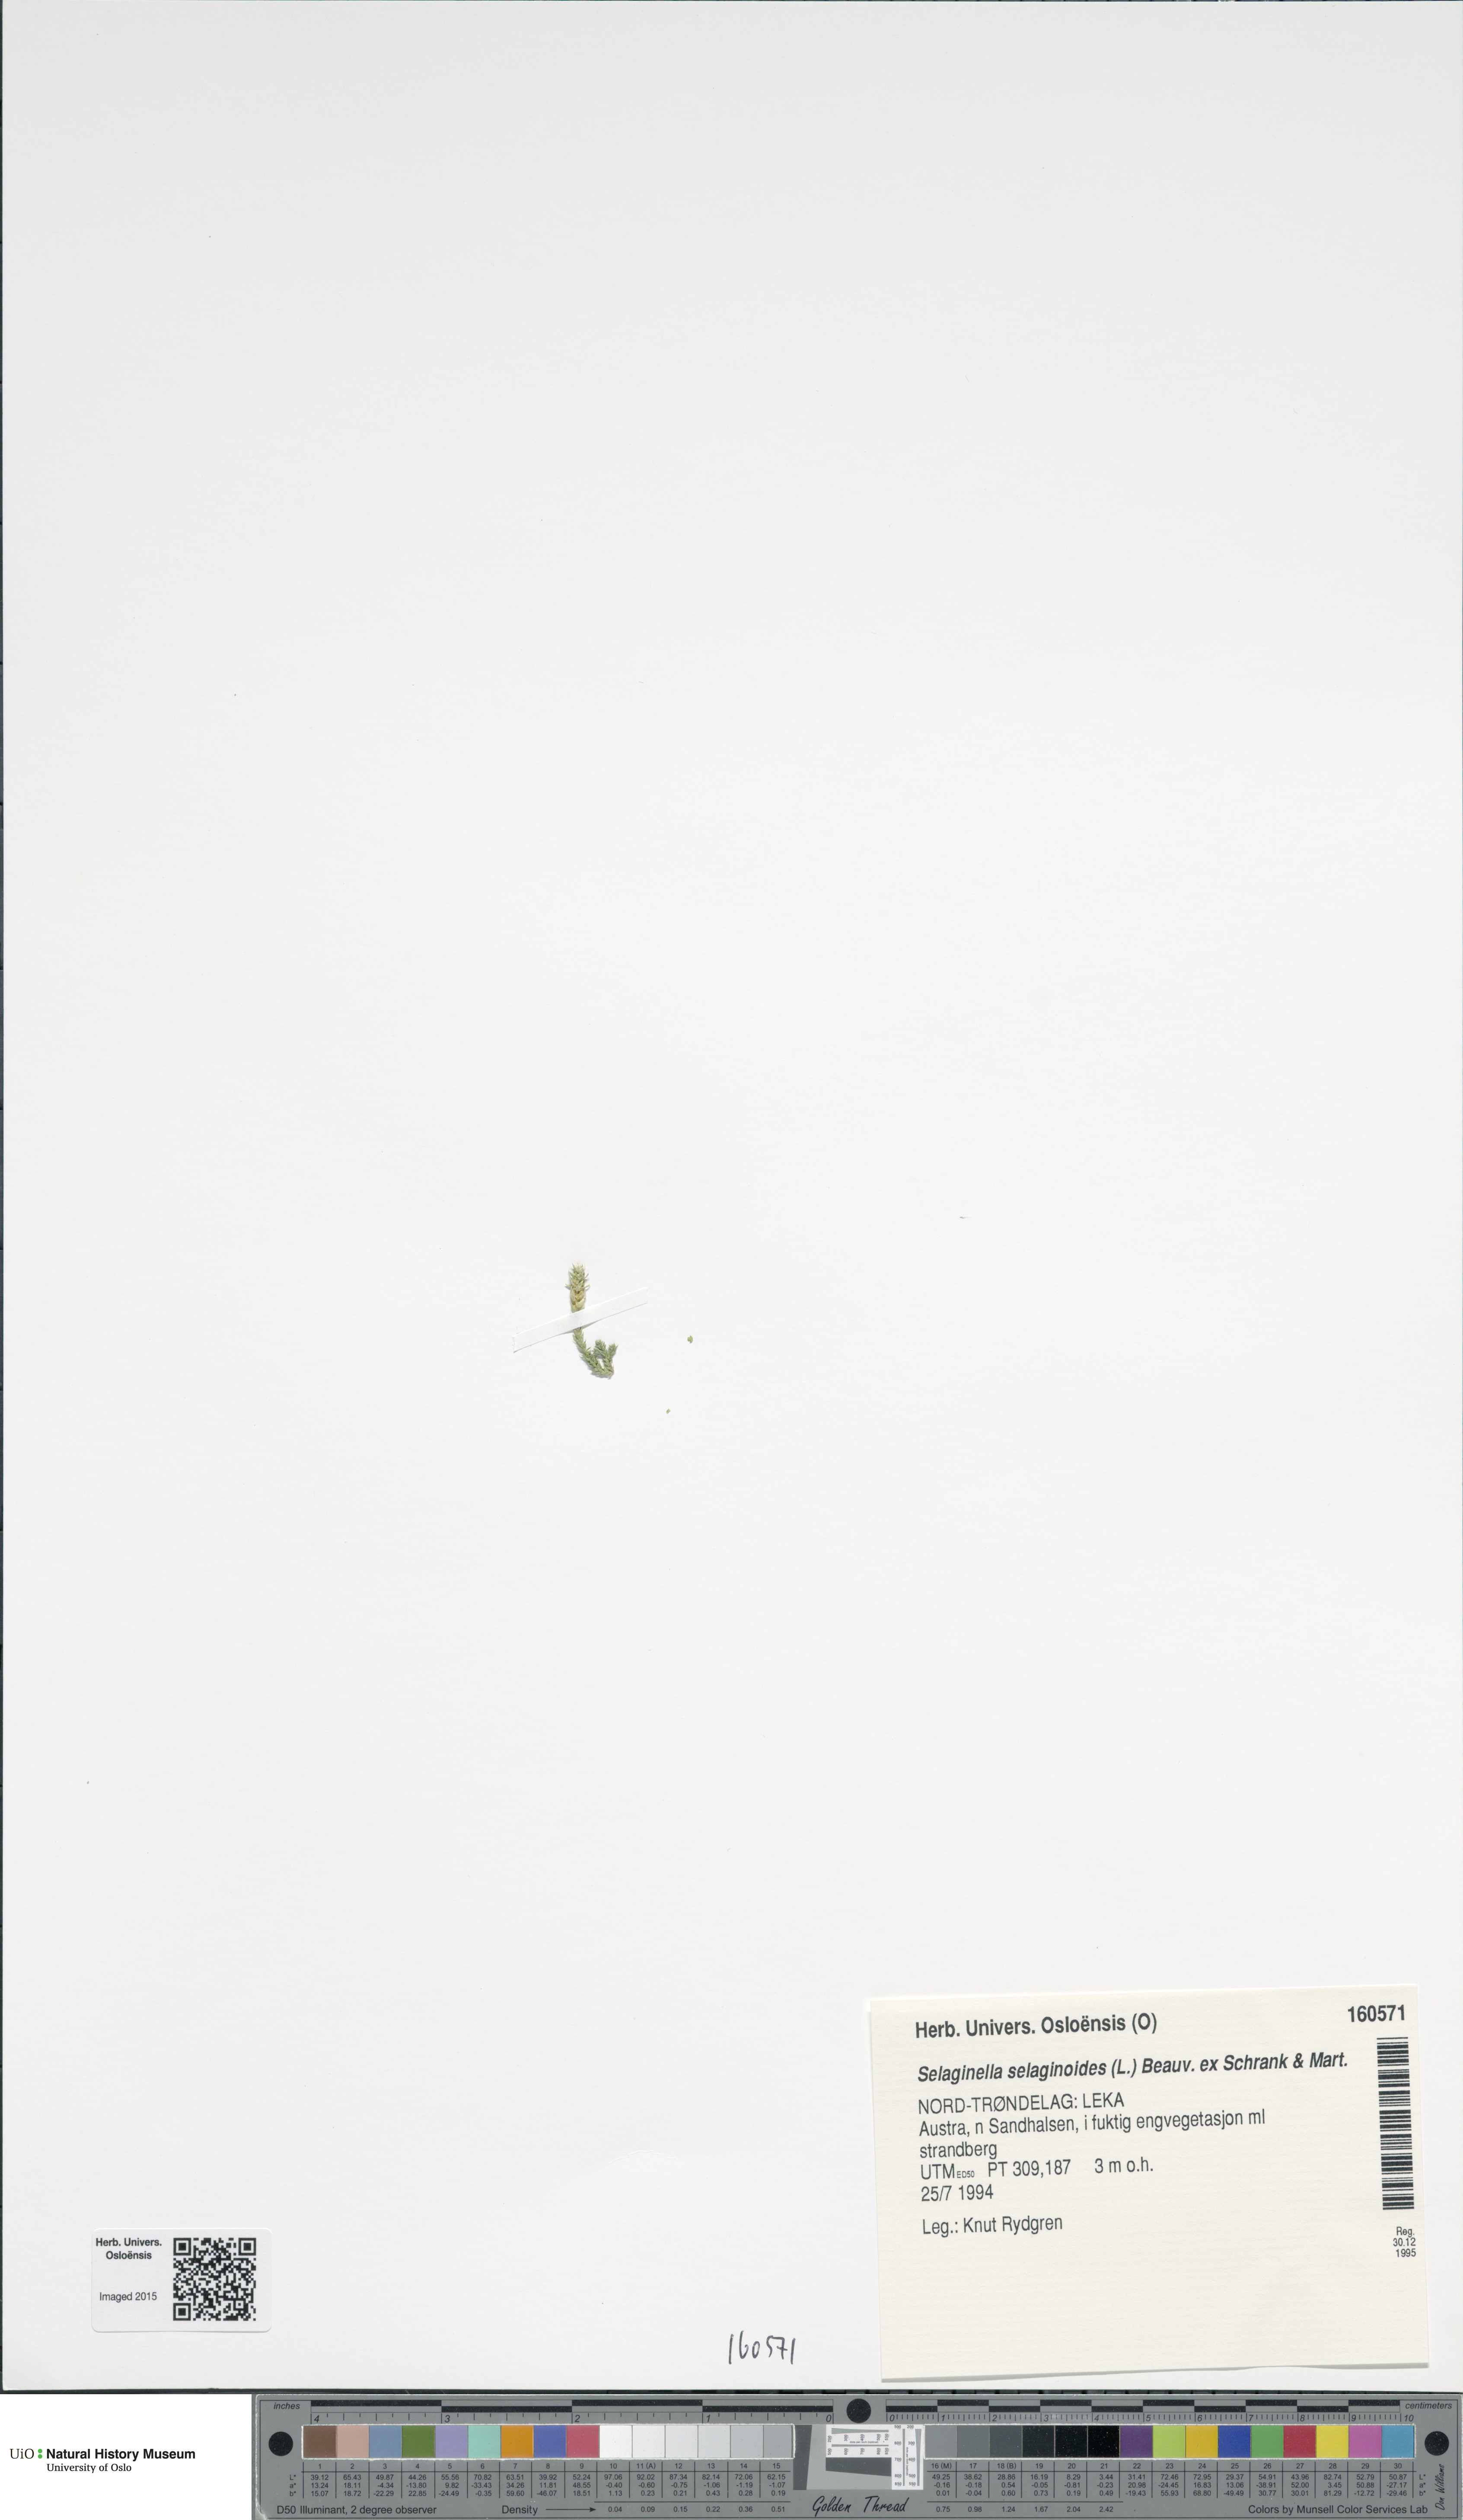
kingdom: Plantae
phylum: Tracheophyta
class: Lycopodiopsida
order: Selaginellales
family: Selaginellaceae
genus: Selaginella
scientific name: Selaginella selaginoides
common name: Prickly mountain-moss
